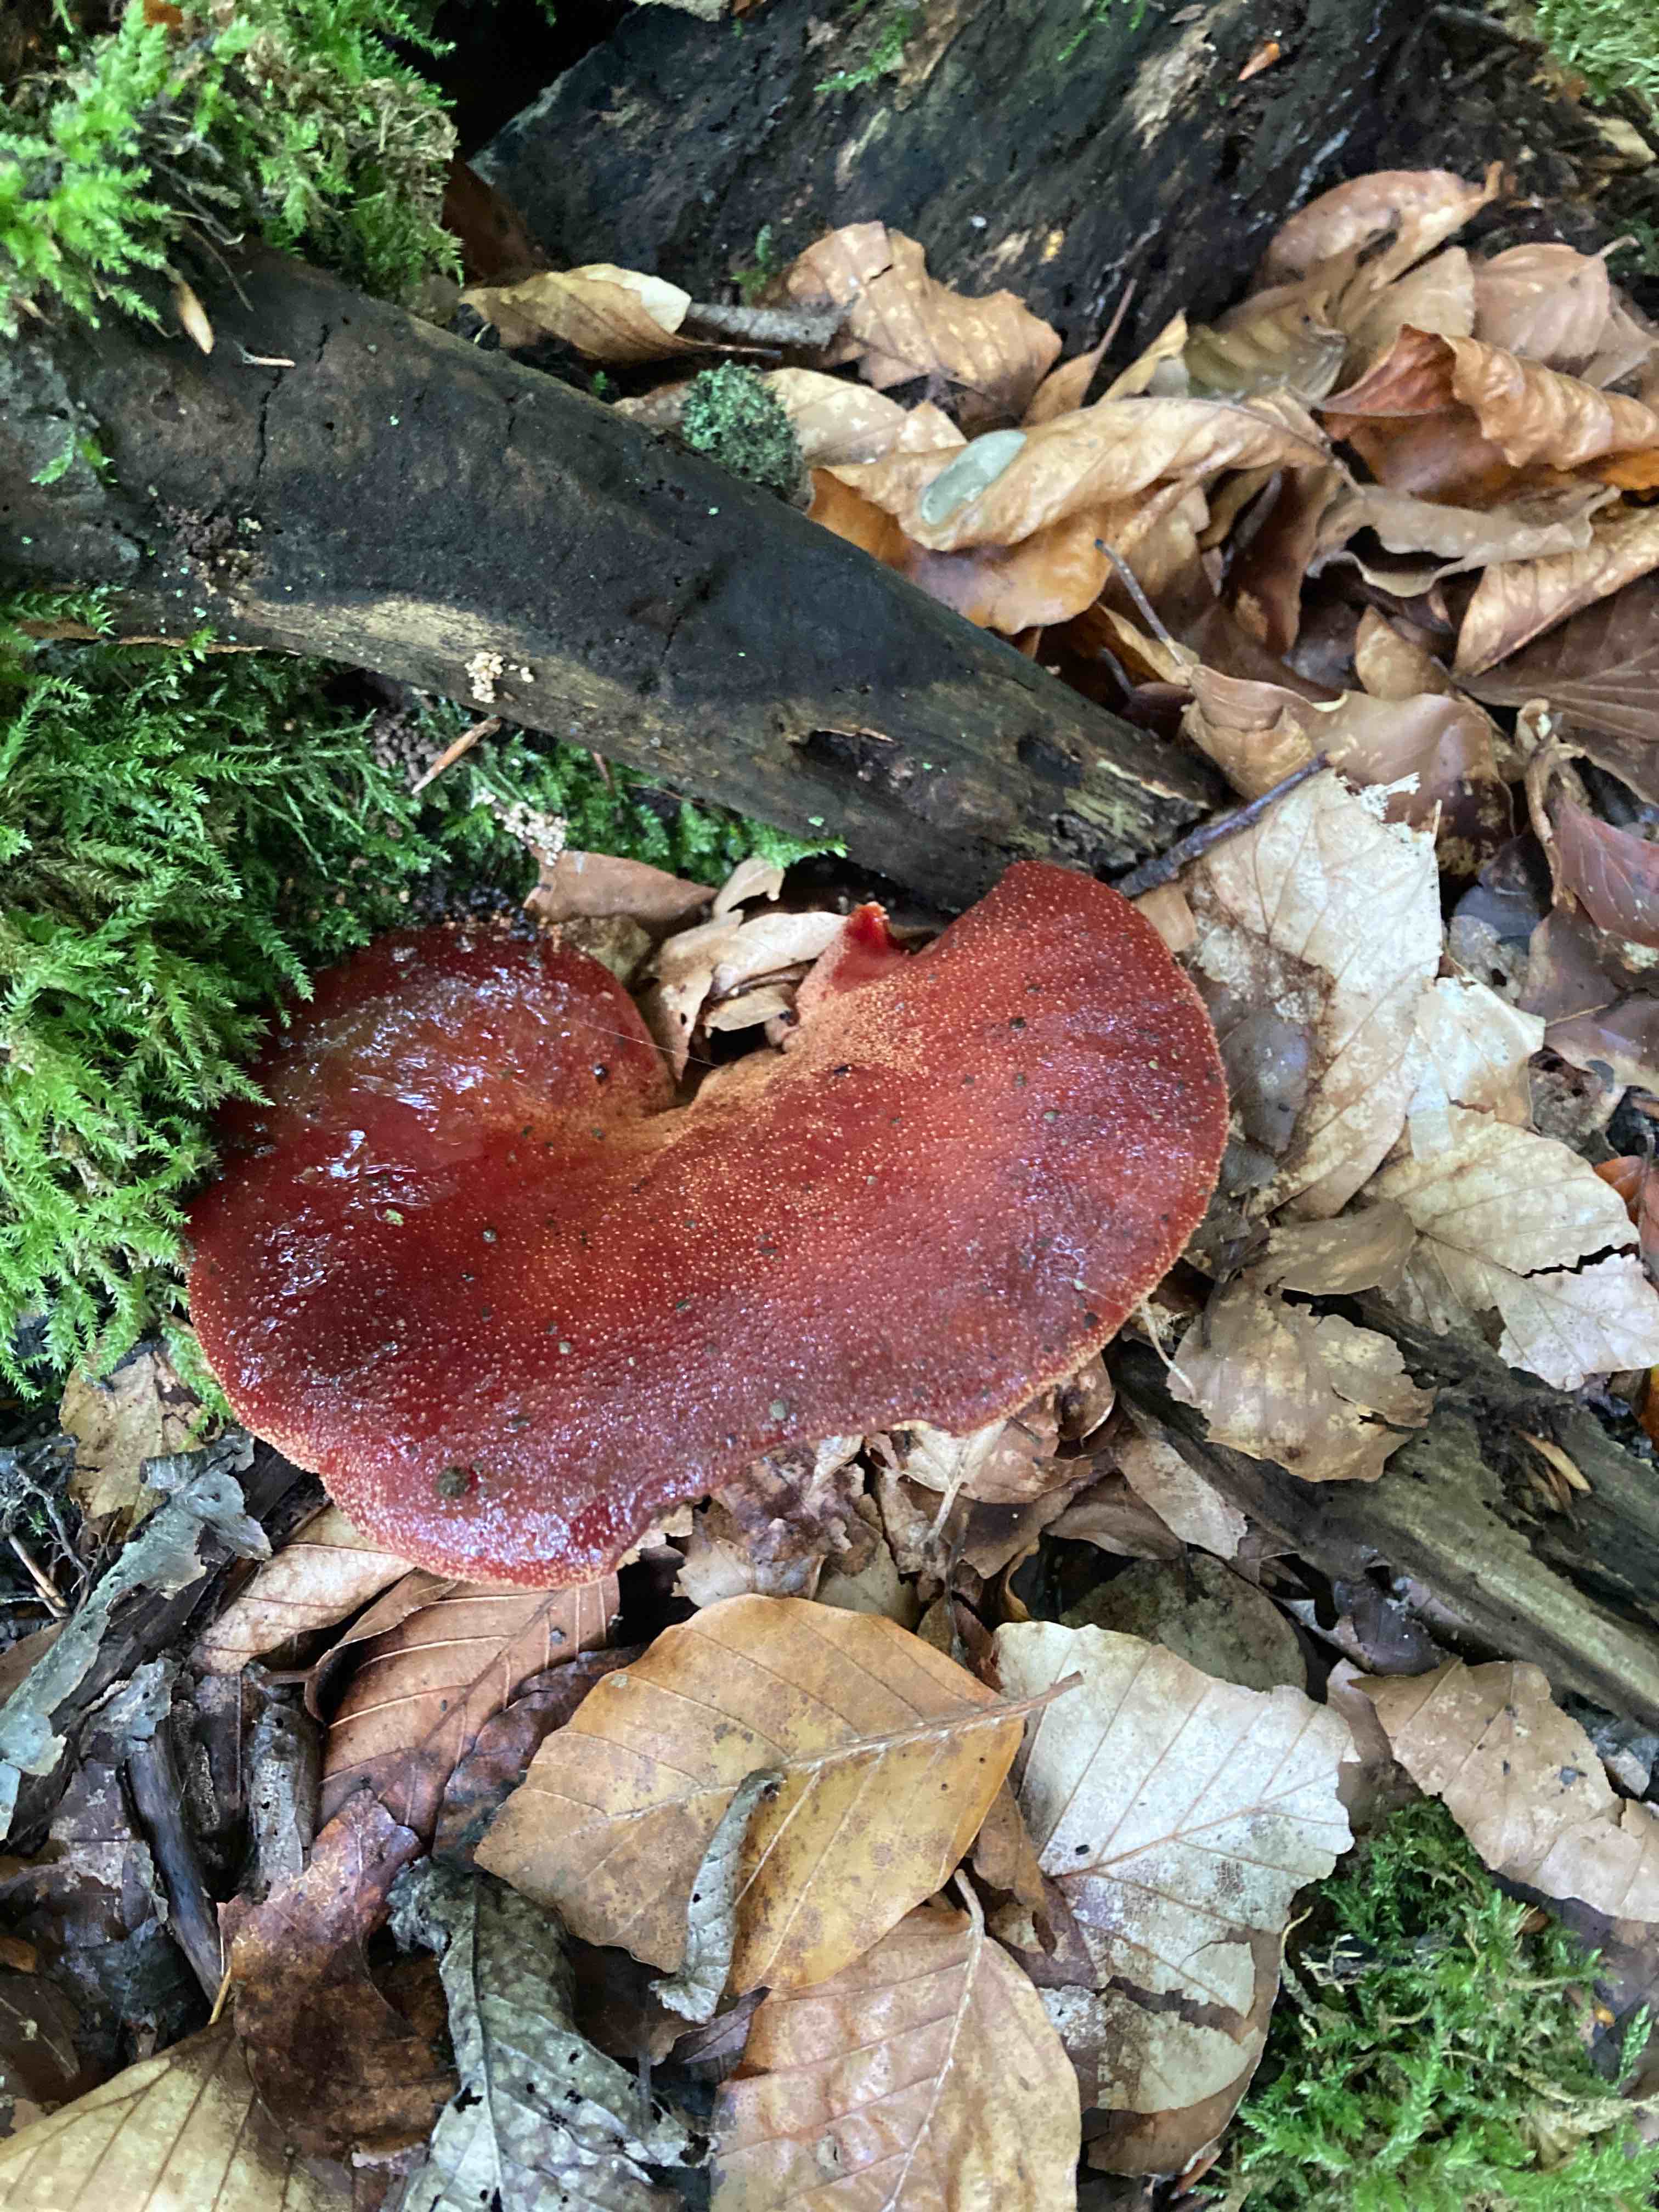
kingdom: Fungi
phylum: Basidiomycota
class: Agaricomycetes
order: Agaricales
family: Fistulinaceae
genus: Fistulina
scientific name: Fistulina hepatica
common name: oksetunge
